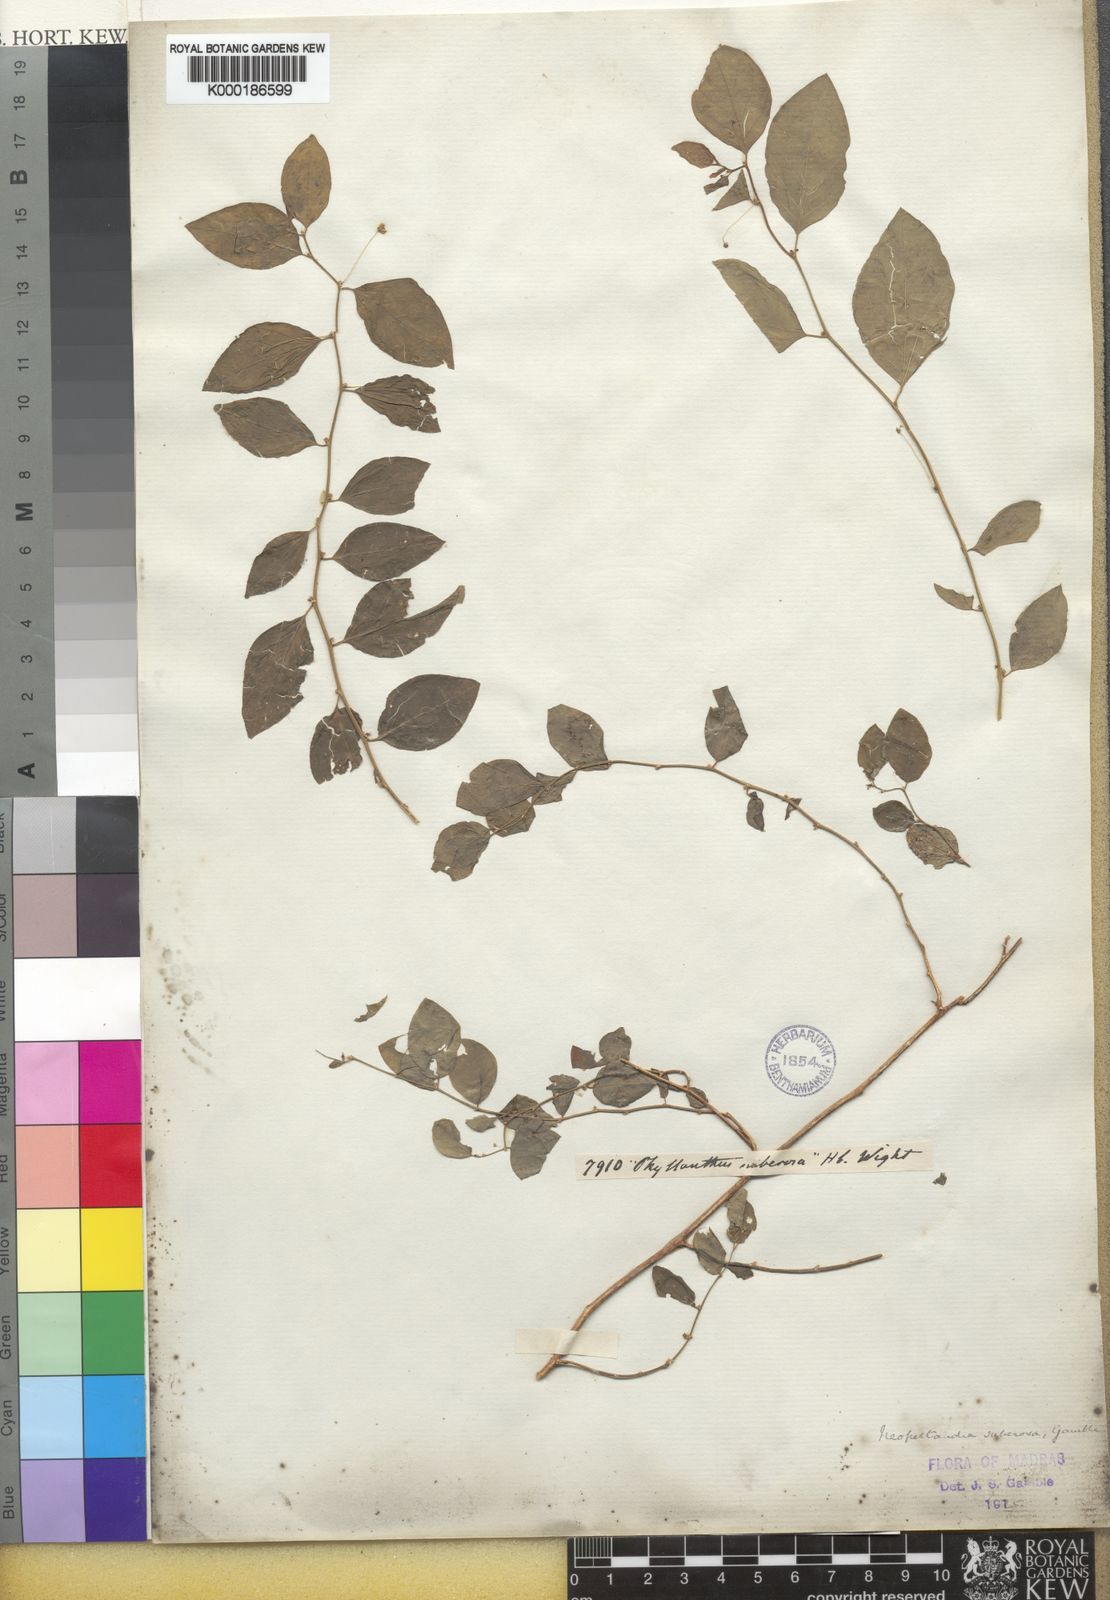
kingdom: Plantae
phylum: Tracheophyta
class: Magnoliopsida
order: Malpighiales
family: Phyllanthaceae
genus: Meineckia
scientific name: Meineckia parvifolia
